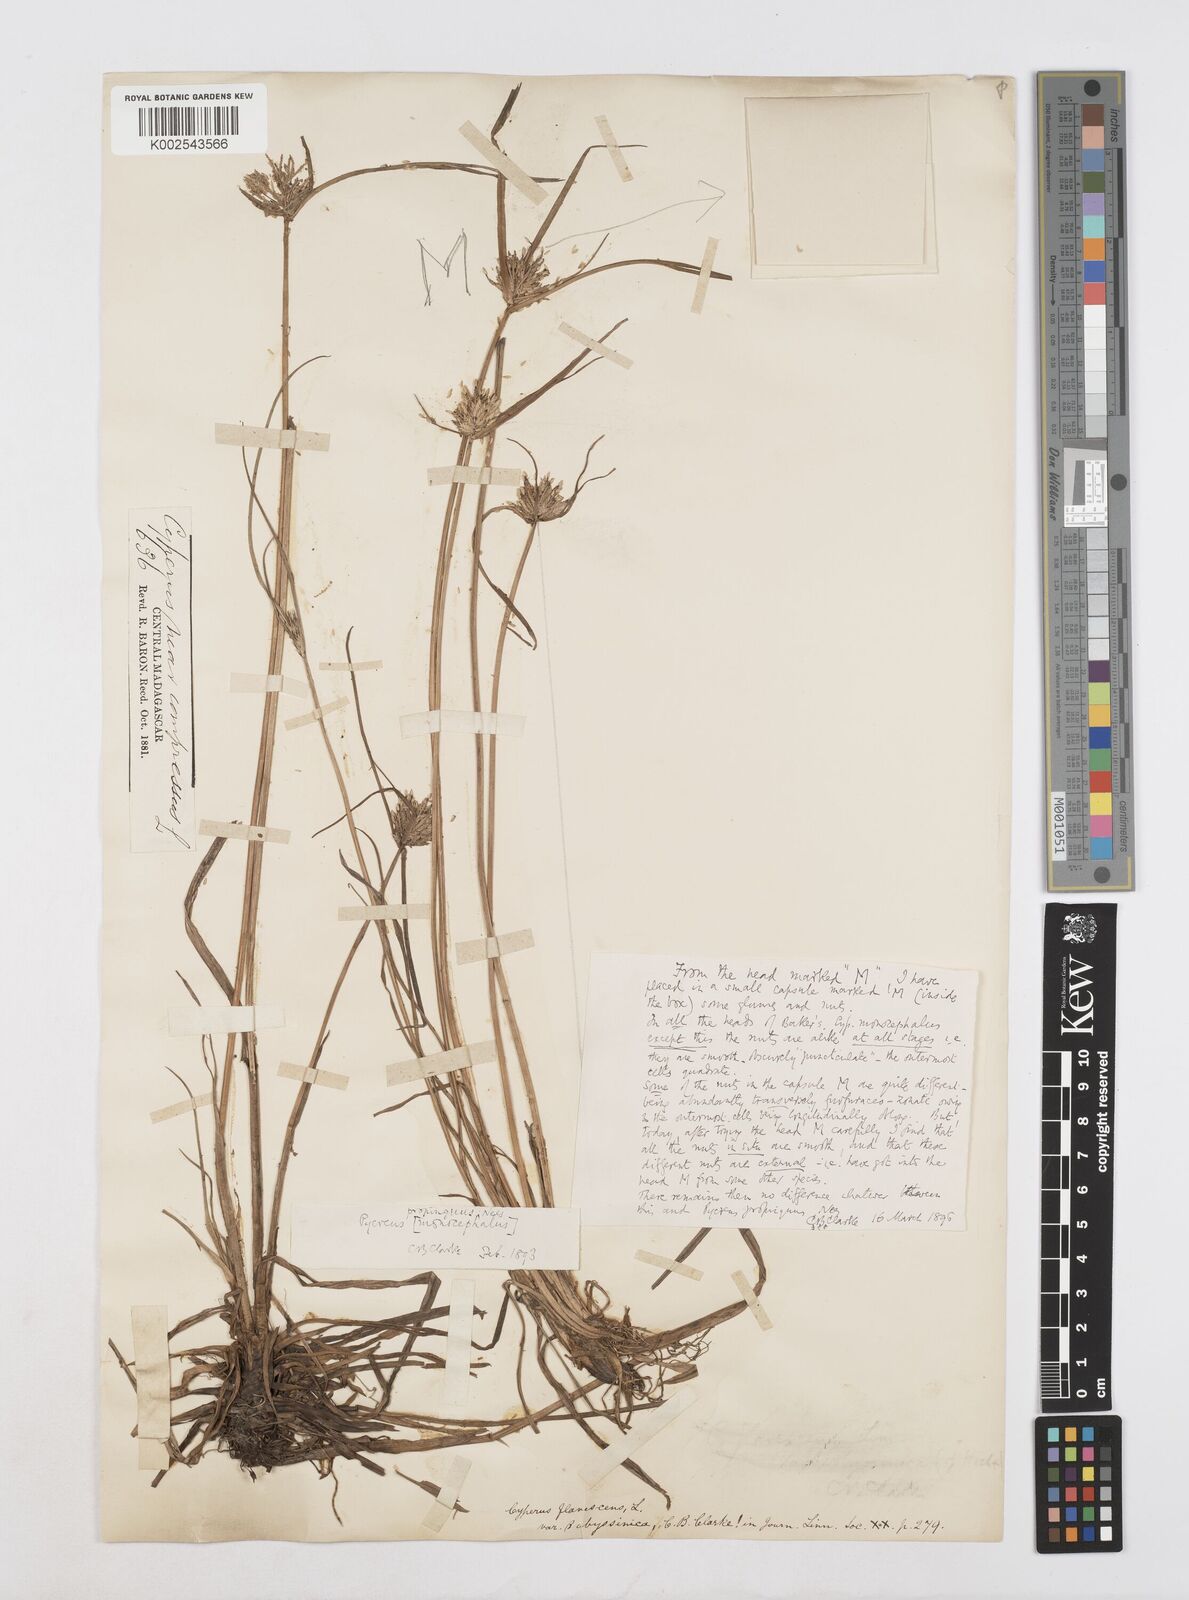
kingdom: Plantae
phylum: Tracheophyta
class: Liliopsida
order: Poales
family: Cyperaceae
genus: Cyperus
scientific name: Cyperus smithianus
